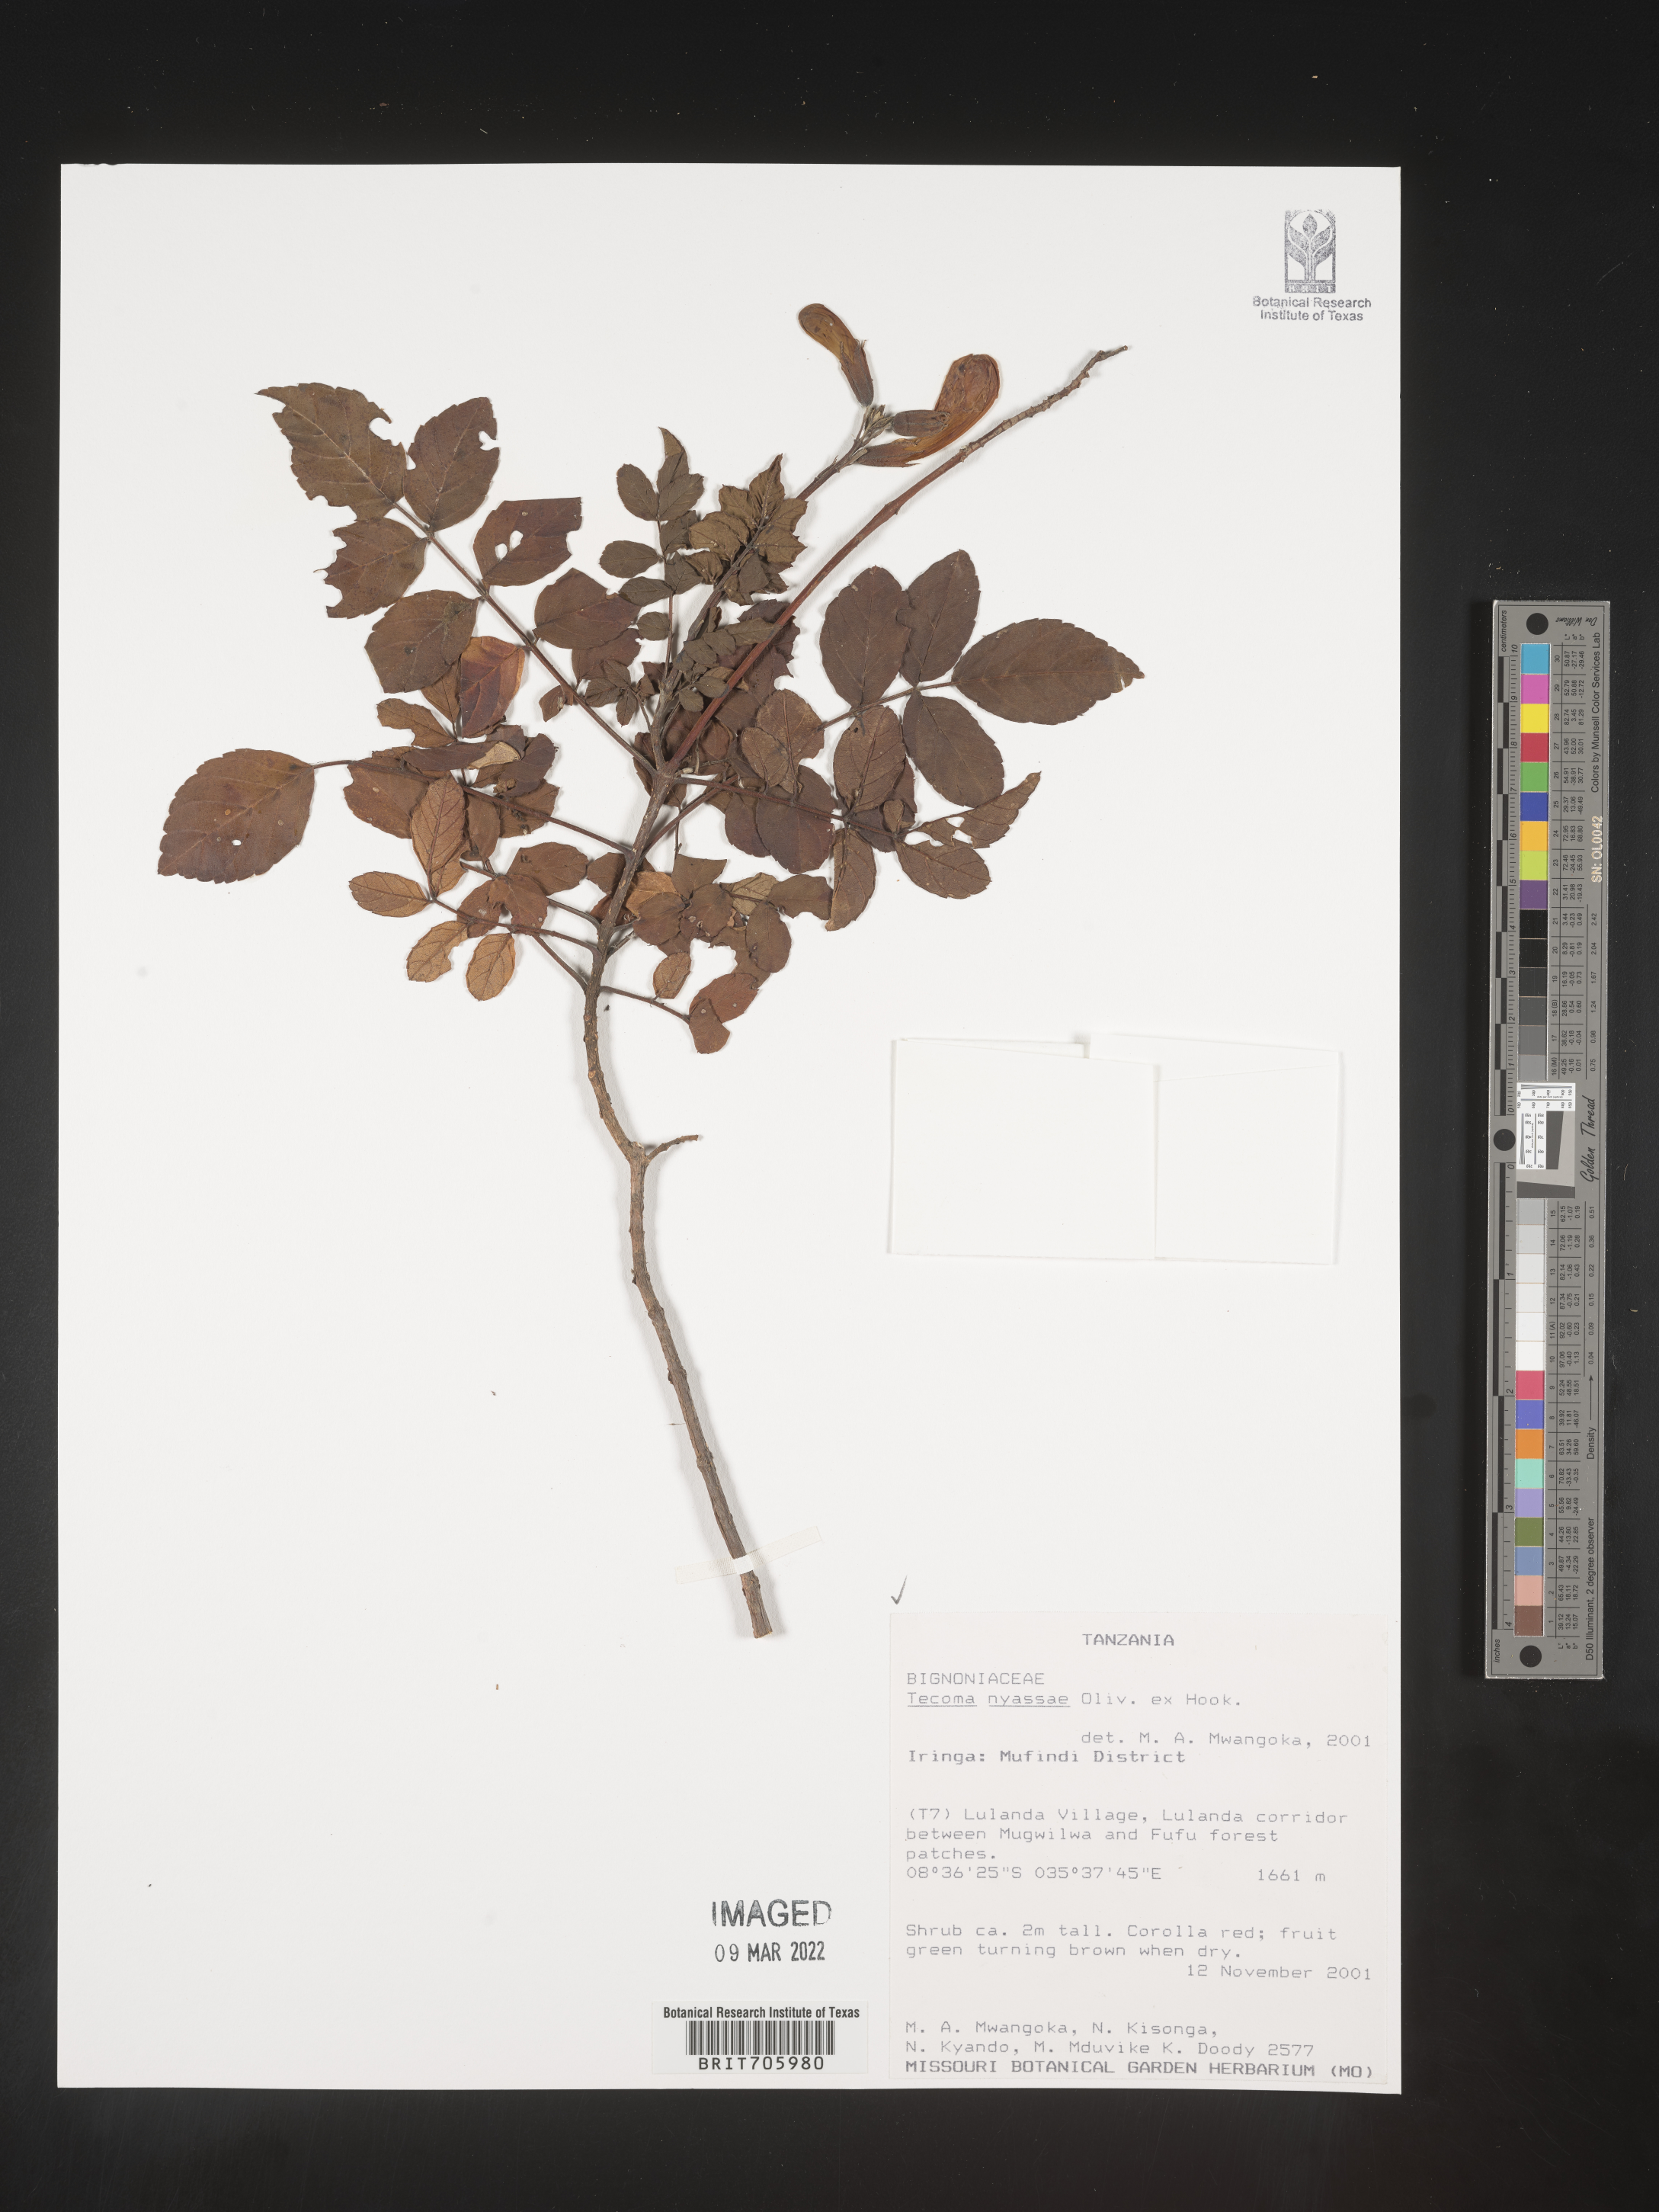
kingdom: Plantae
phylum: Tracheophyta
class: Magnoliopsida
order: Lamiales
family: Bignoniaceae
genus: Tecoma
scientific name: Tecoma
